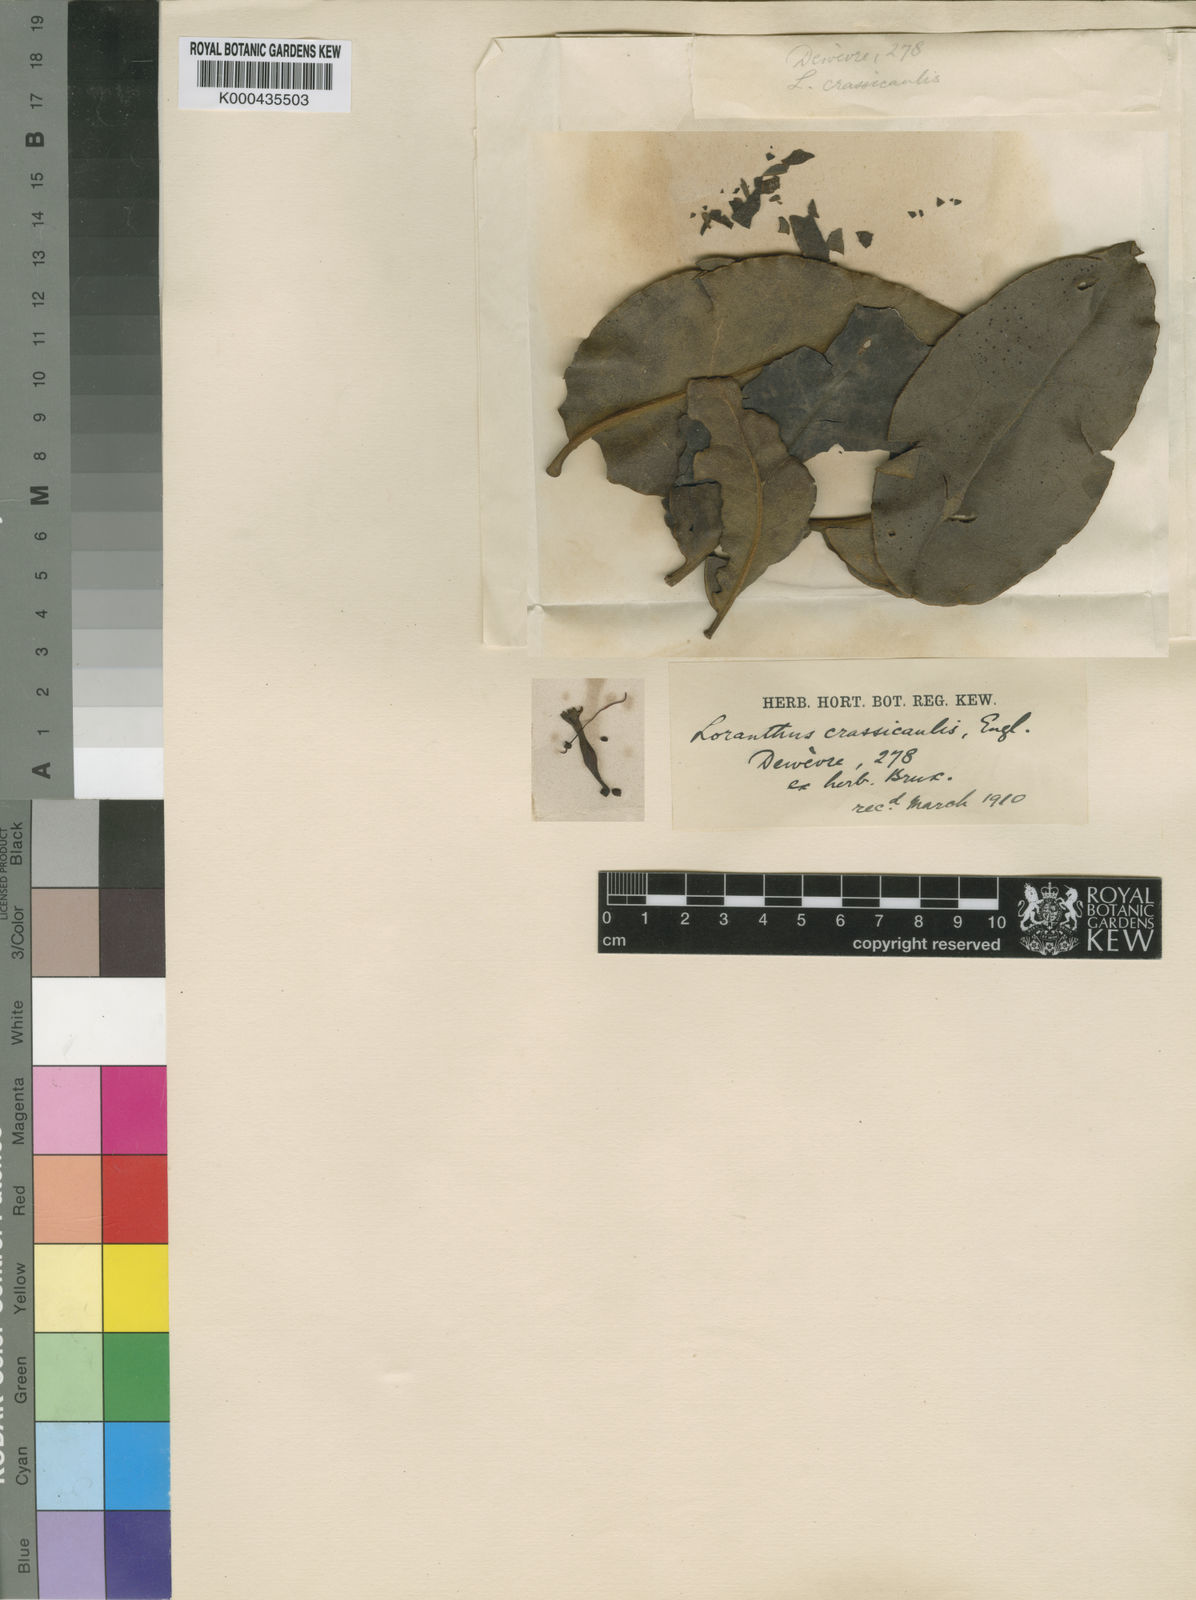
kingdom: Plantae
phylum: Tracheophyta
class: Magnoliopsida
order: Santalales
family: Loranthaceae
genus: Phragmanthera
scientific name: Phragmanthera crassicaulis
